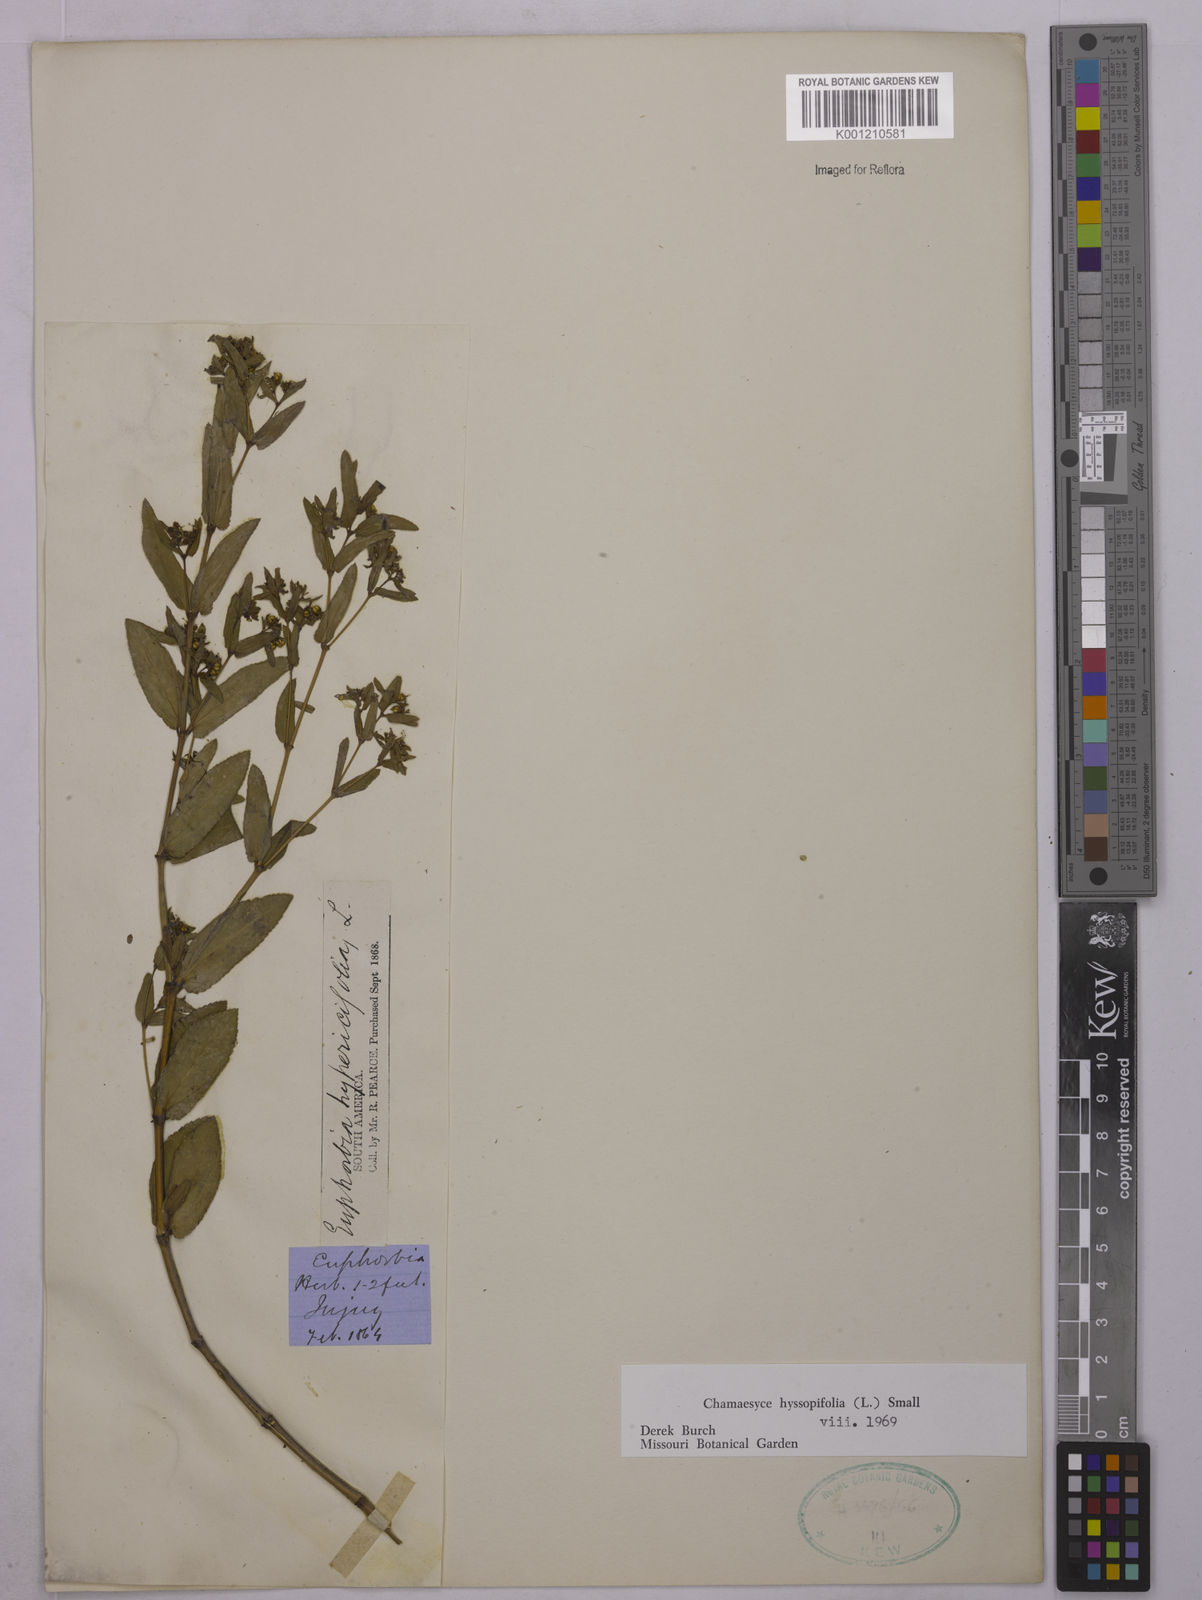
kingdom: Plantae
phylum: Tracheophyta
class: Magnoliopsida
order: Malpighiales
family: Euphorbiaceae
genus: Euphorbia
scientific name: Euphorbia hyssopifolia
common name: Hyssopleaf sandmat
